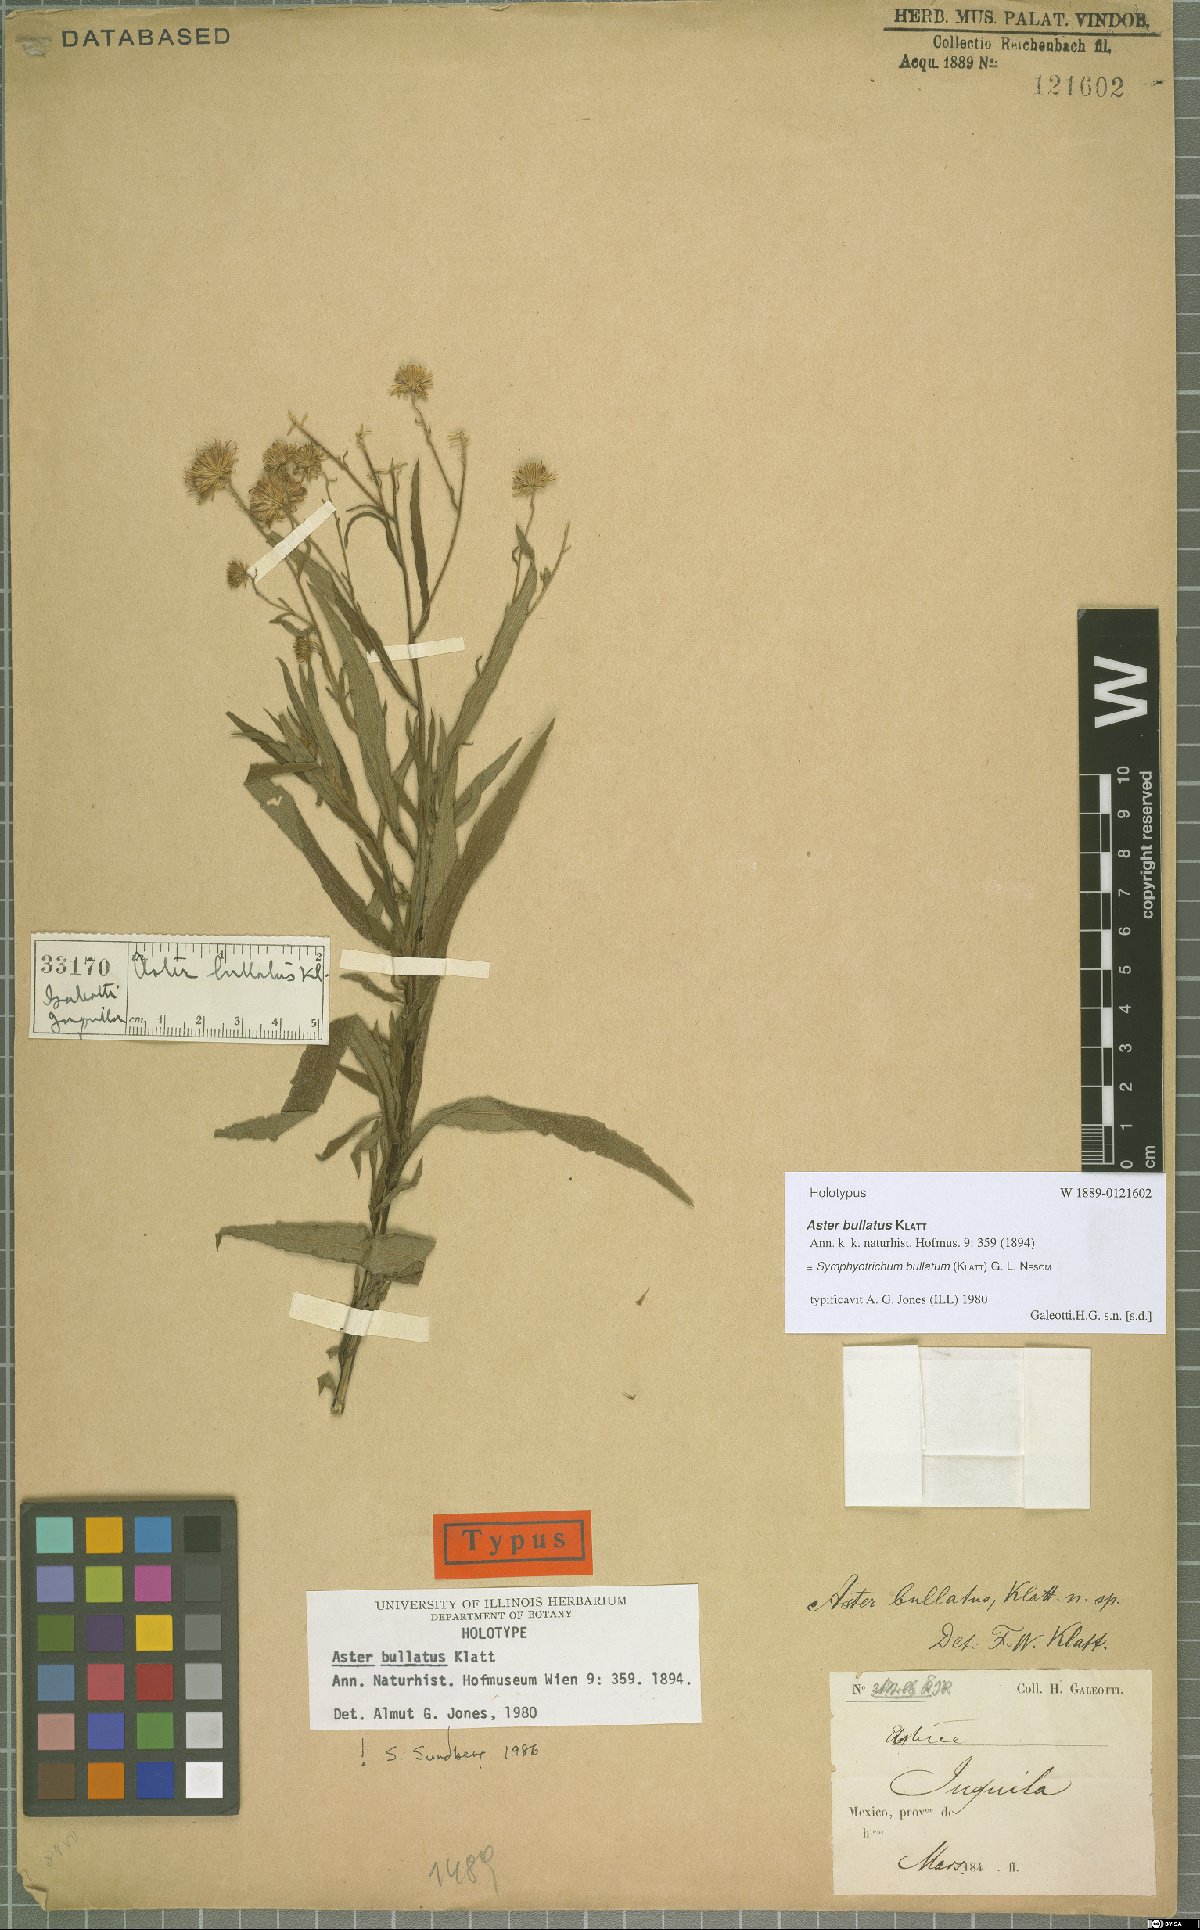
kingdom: Plantae
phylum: Tracheophyta
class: Magnoliopsida
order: Asterales
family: Asteraceae
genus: Symphyotrichum
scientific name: Symphyotrichum bullatum
